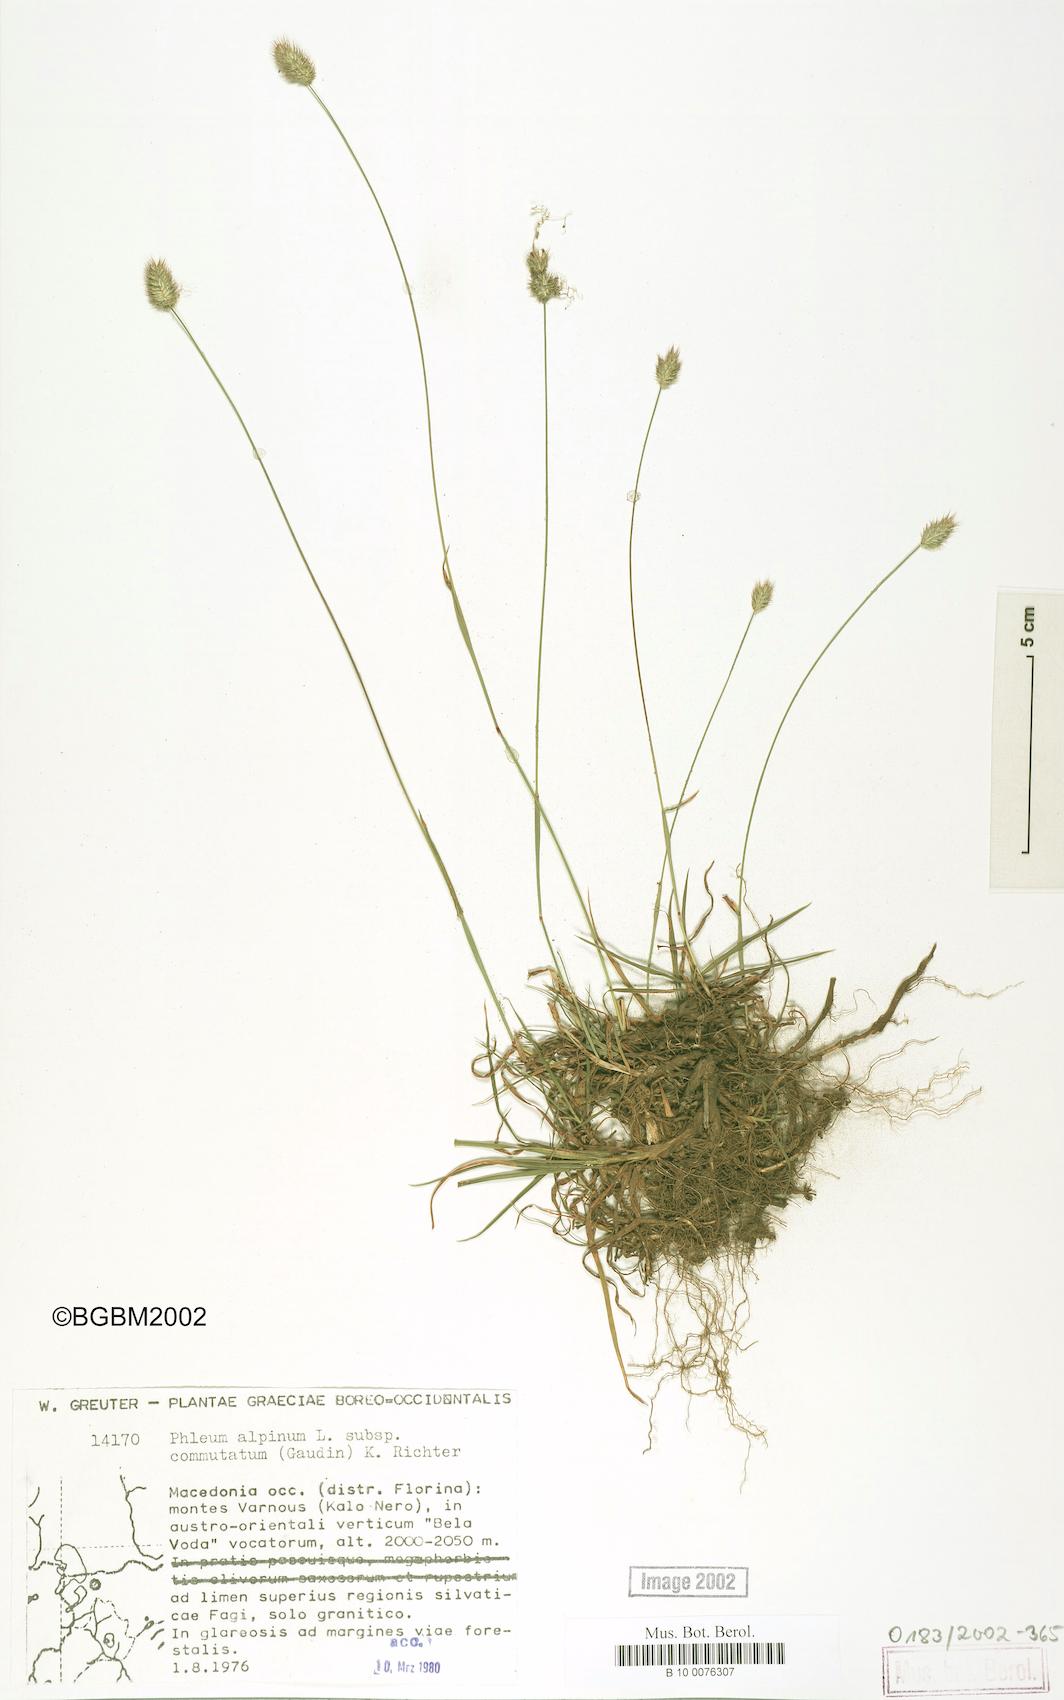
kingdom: Plantae
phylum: Tracheophyta
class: Liliopsida
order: Poales
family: Poaceae
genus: Phleum
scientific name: Phleum alpinum
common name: Alpine cat's-tail
